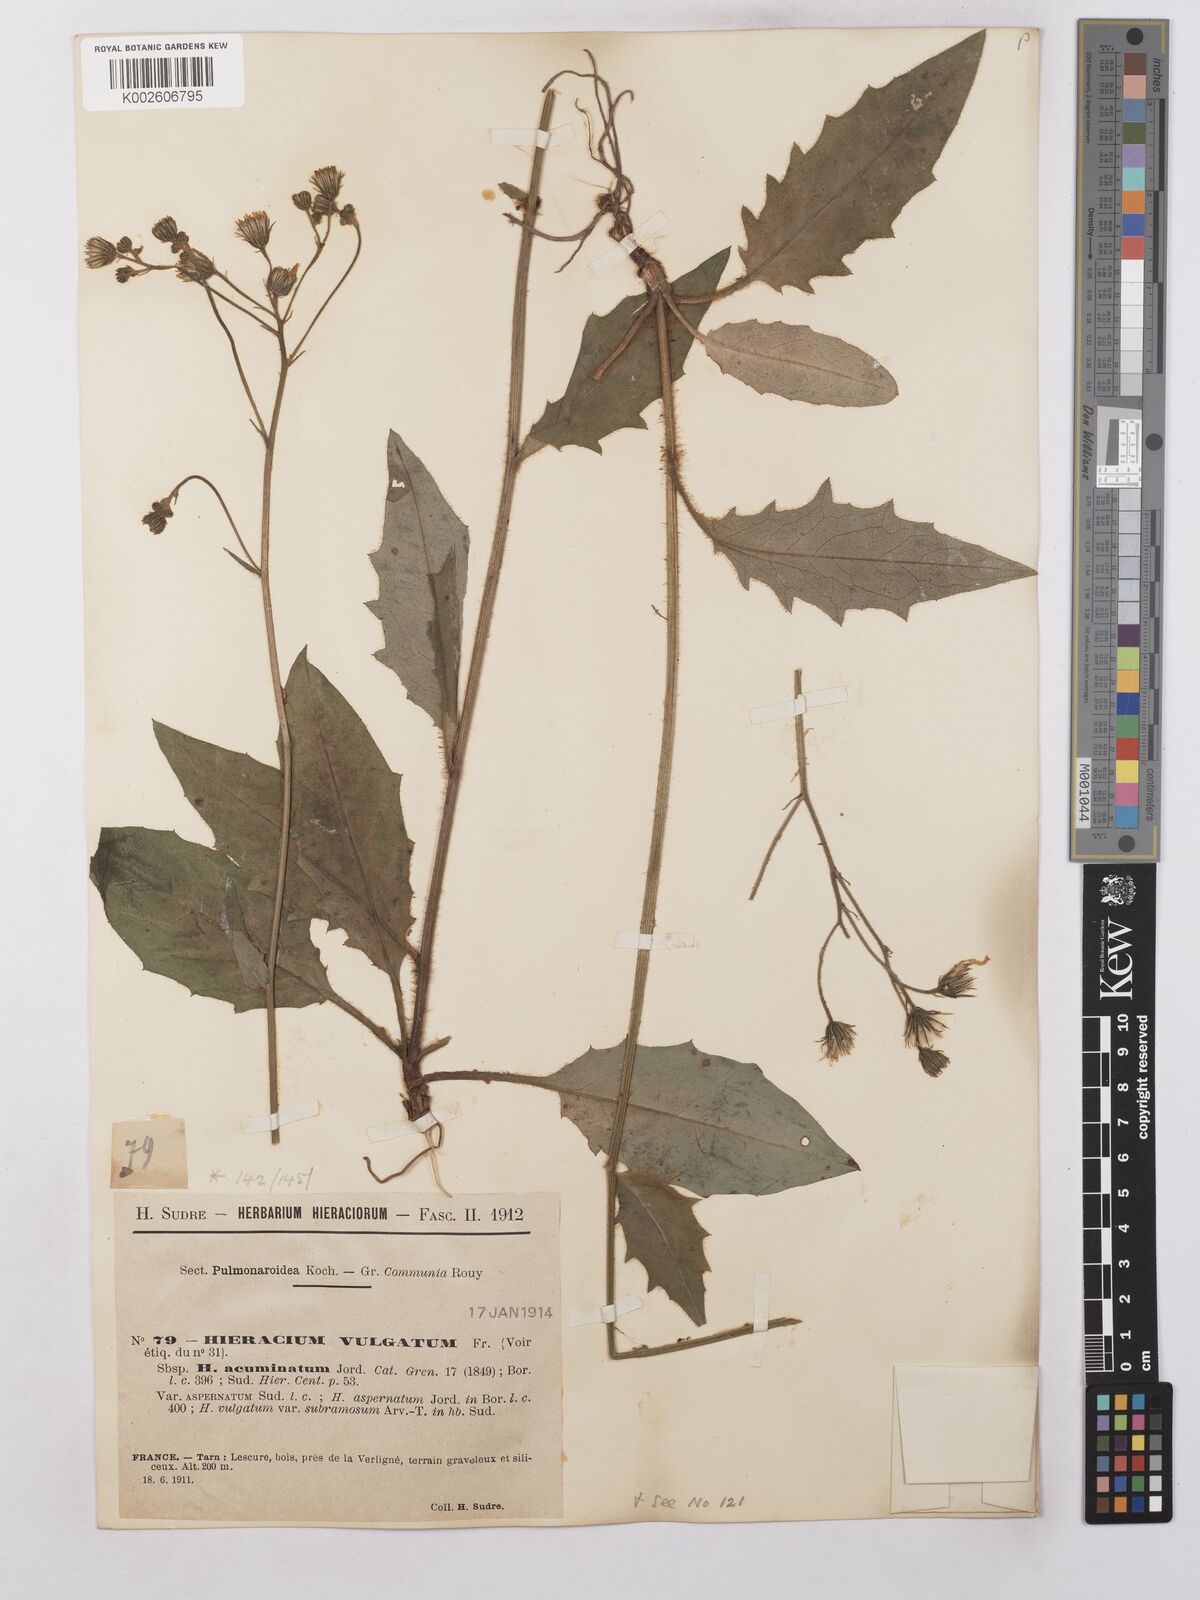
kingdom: Plantae
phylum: Tracheophyta
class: Magnoliopsida
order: Asterales
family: Asteraceae
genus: Hieracium
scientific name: Hieracium lachenalii
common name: Common hawkweed
